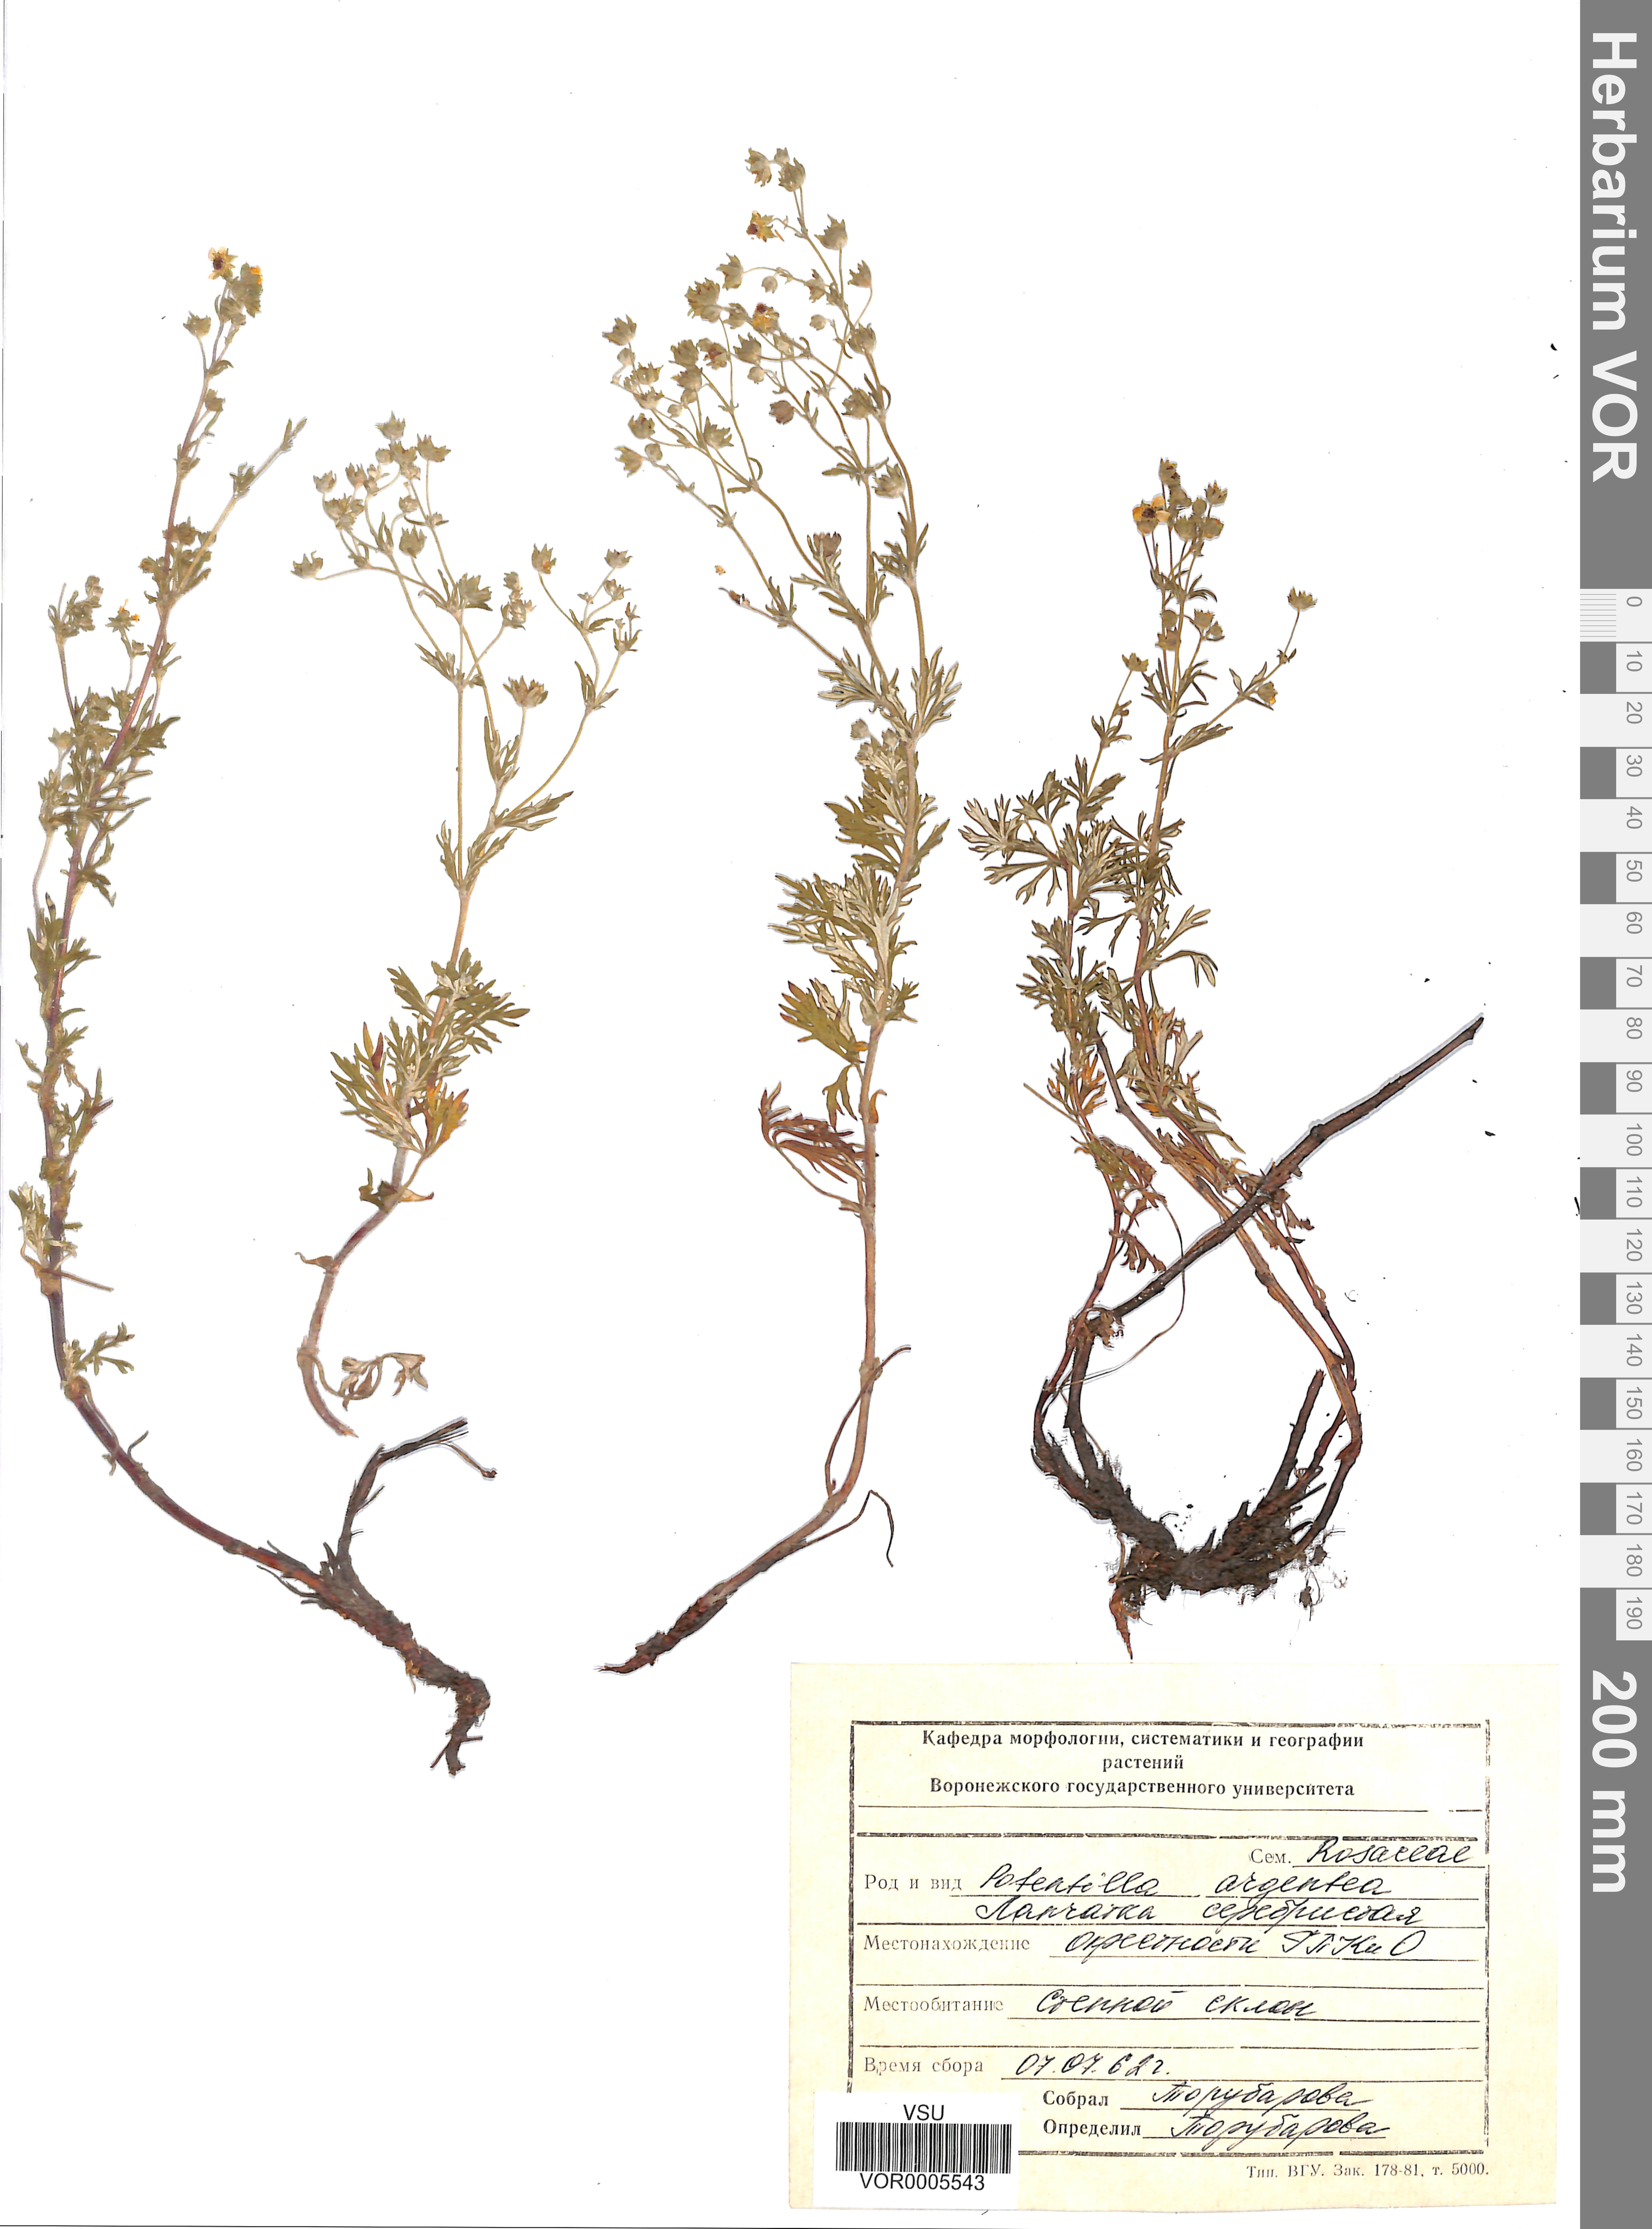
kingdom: Plantae
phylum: Tracheophyta
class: Magnoliopsida
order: Rosales
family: Rosaceae
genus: Potentilla
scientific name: Potentilla argentea
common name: Hoary cinquefoil
